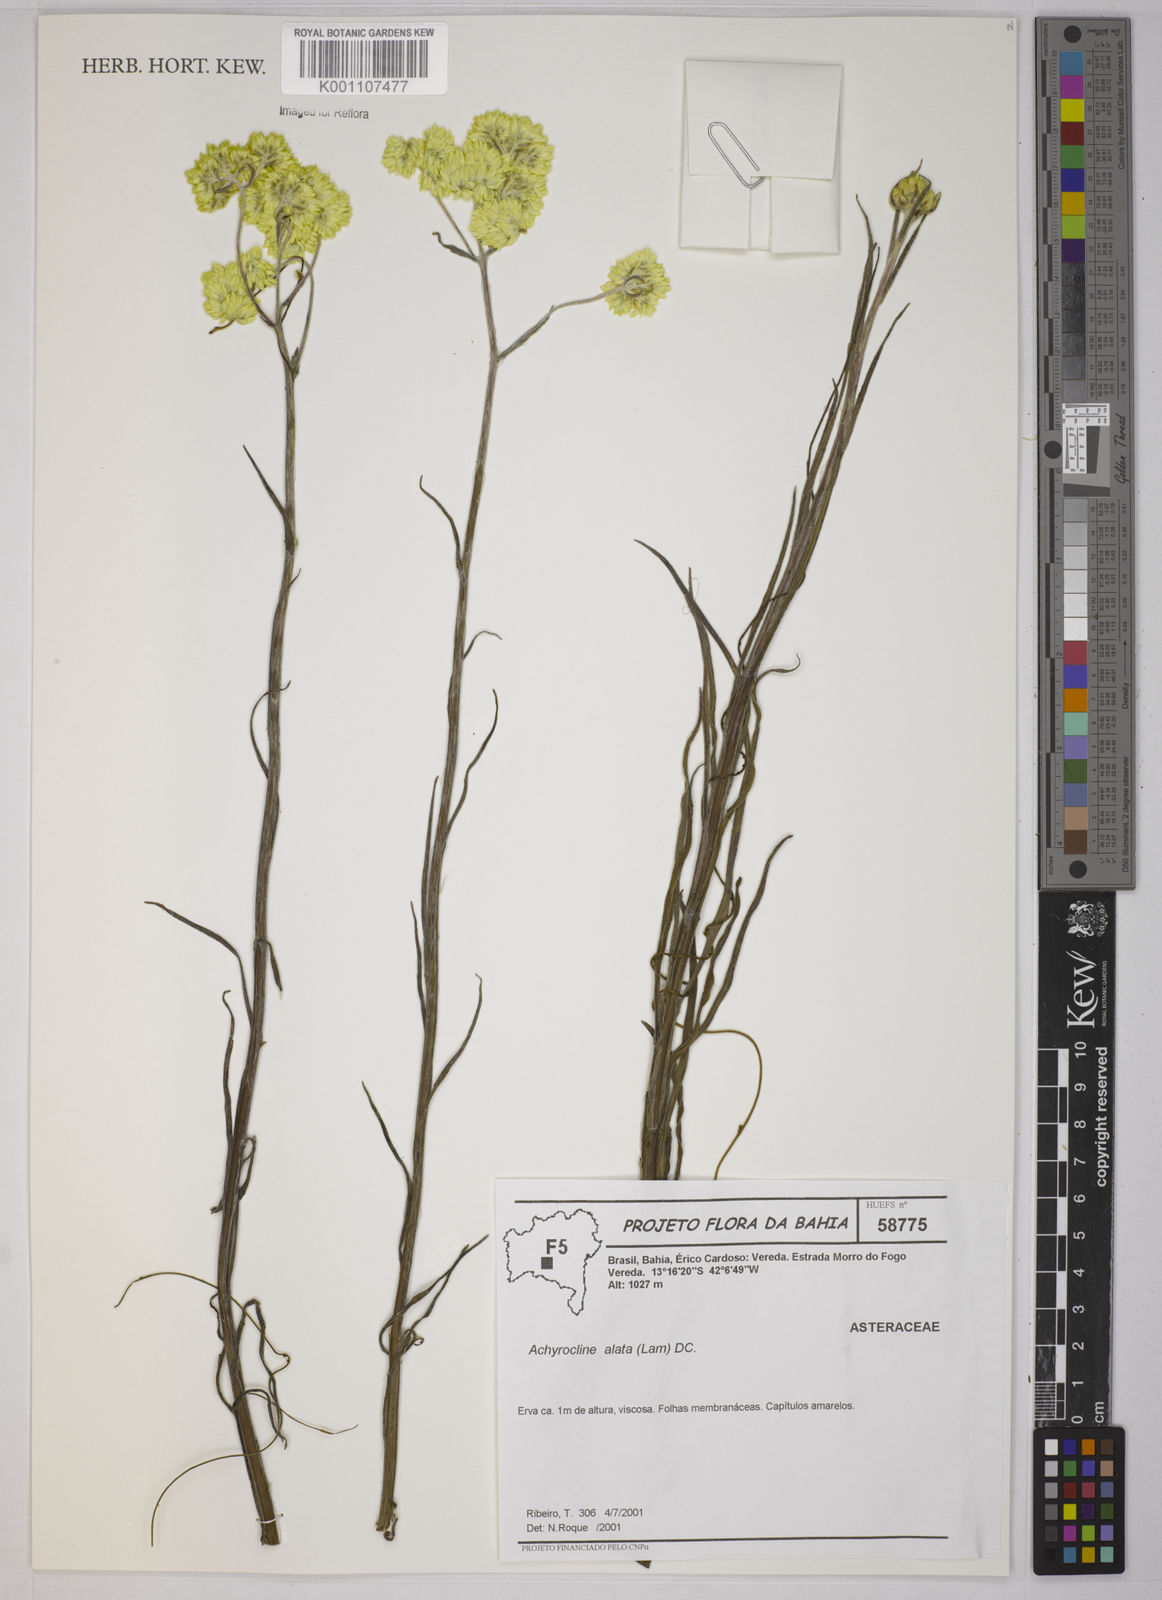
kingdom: Plantae
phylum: Tracheophyta
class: Magnoliopsida
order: Asterales
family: Asteraceae
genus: Achyrocline
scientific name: Achyrocline alata
